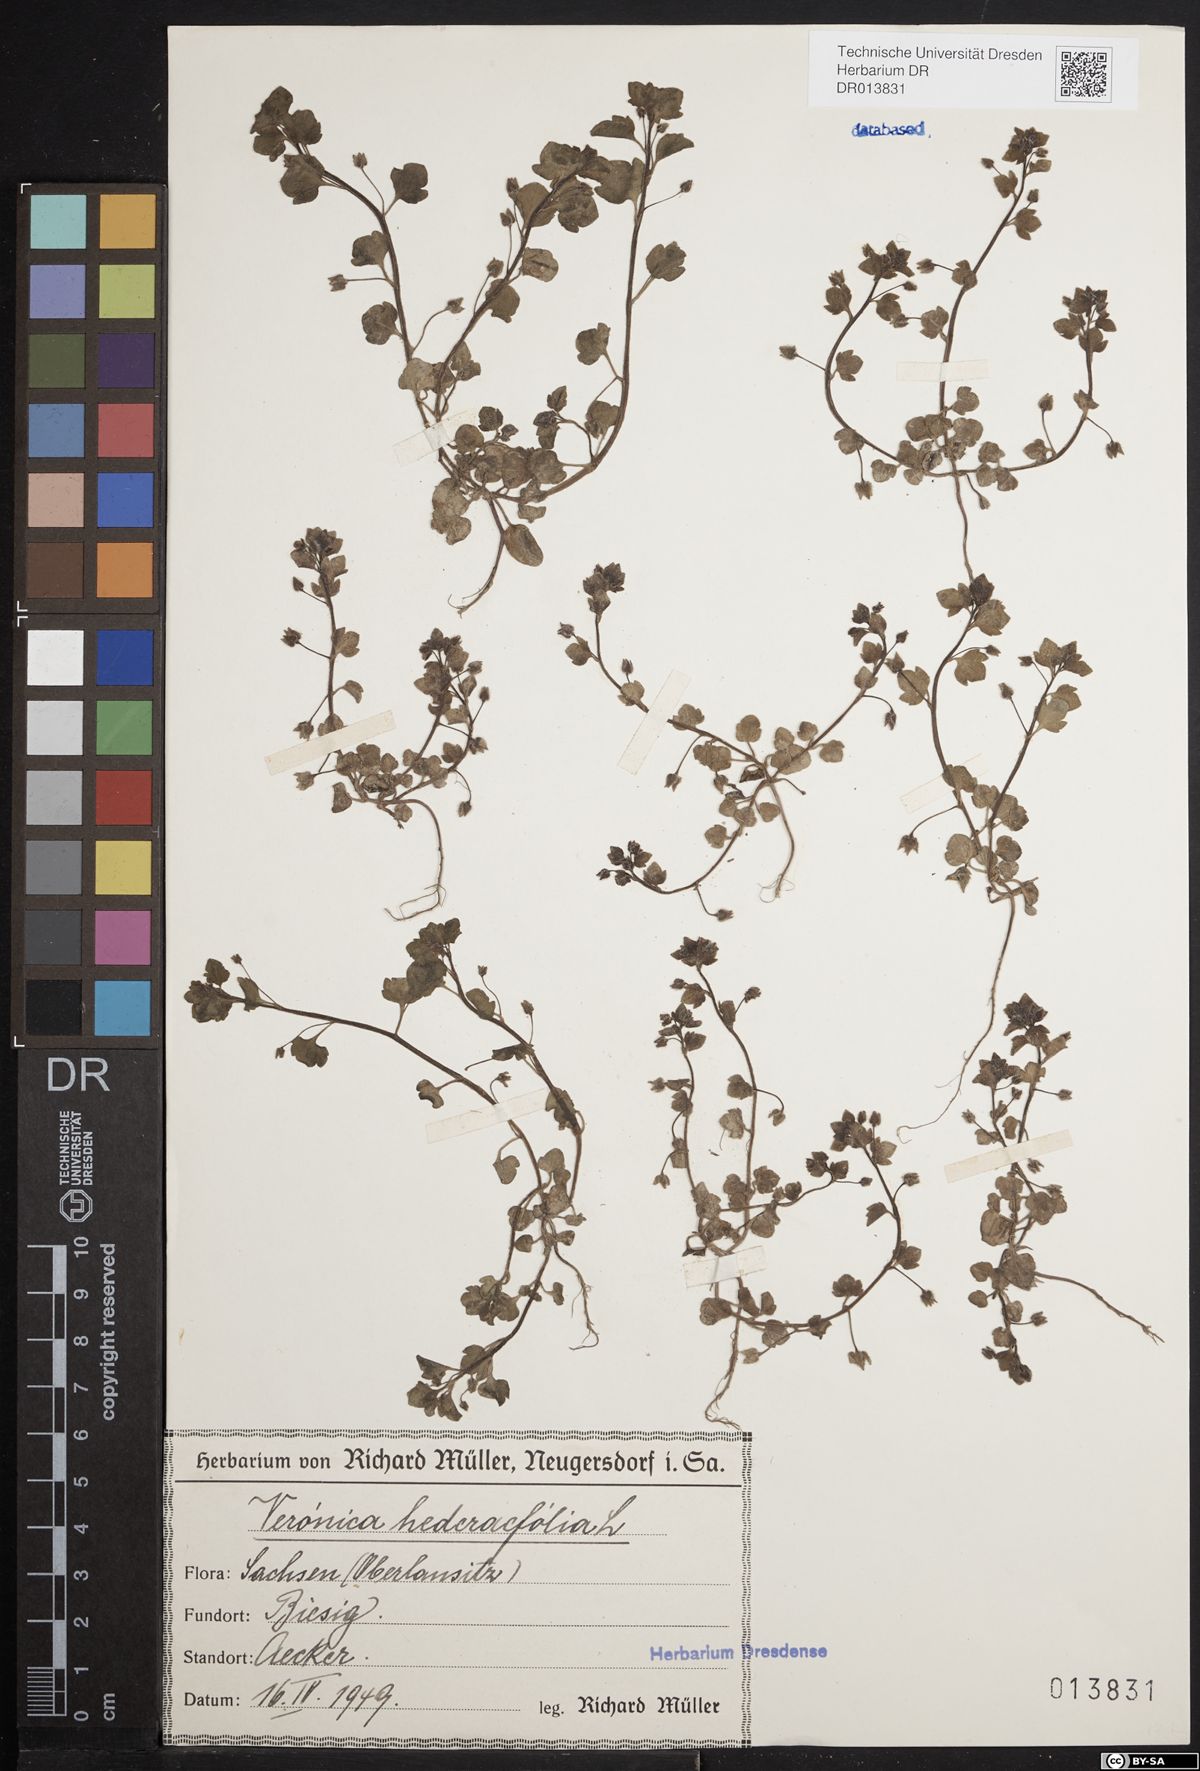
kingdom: Plantae
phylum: Tracheophyta
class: Magnoliopsida
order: Lamiales
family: Plantaginaceae
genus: Veronica
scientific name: Veronica hederifolia
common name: Ivy-leaved speedwell
